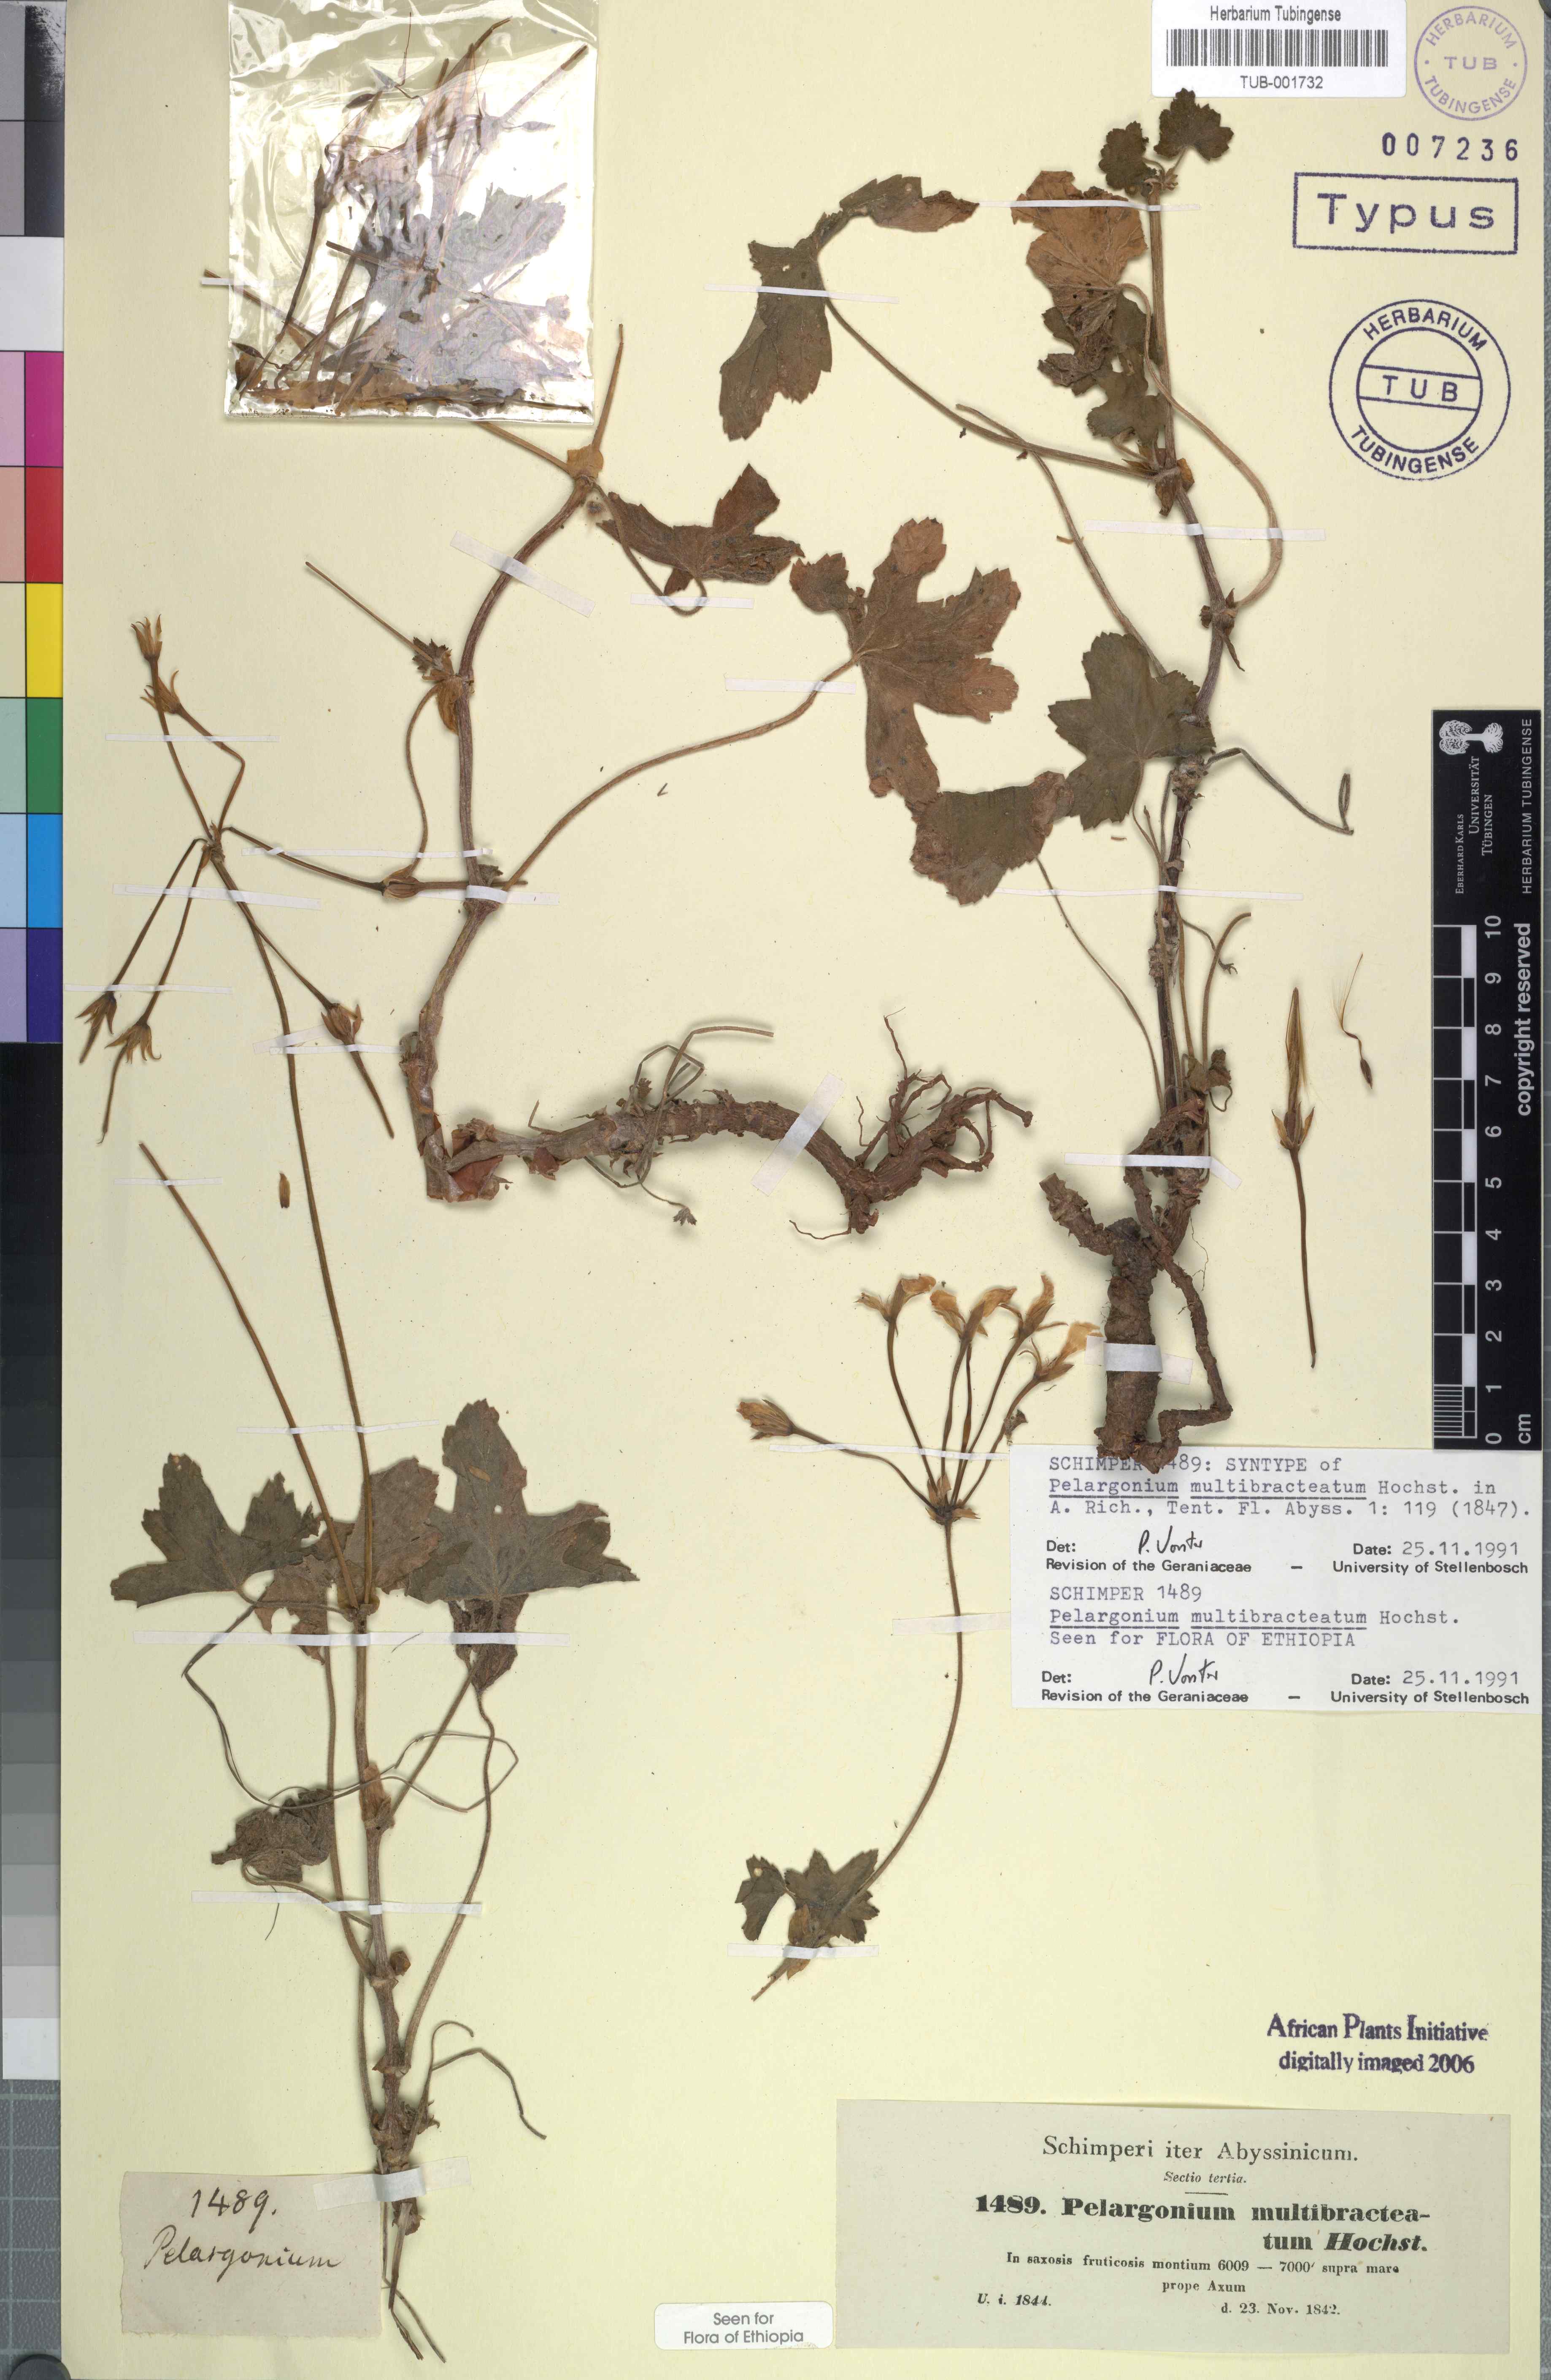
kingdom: Plantae
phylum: Tracheophyta
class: Magnoliopsida
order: Geraniales
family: Geraniaceae
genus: Pelargonium
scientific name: Pelargonium multibracteatum
